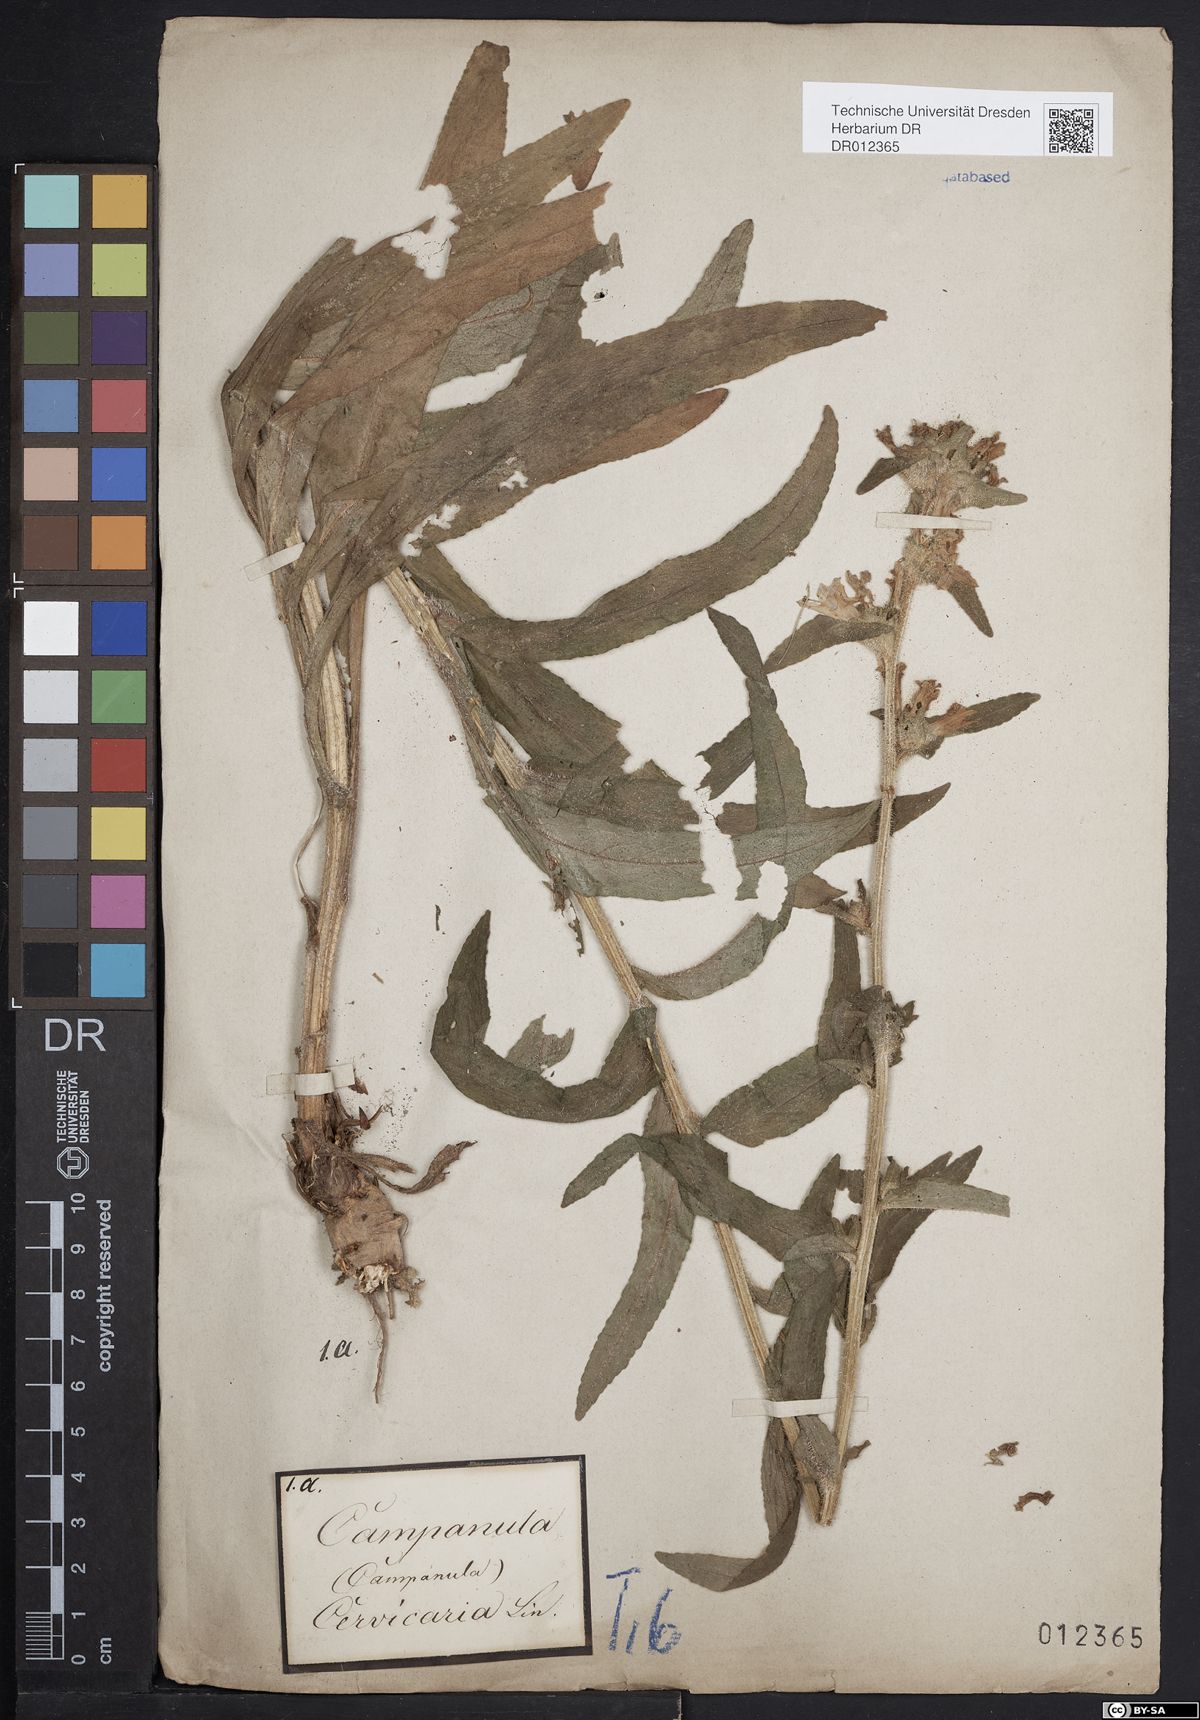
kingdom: Plantae
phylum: Tracheophyta
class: Magnoliopsida
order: Asterales
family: Campanulaceae
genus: Campanula
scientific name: Campanula cervicaria
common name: Bristly bellflower
